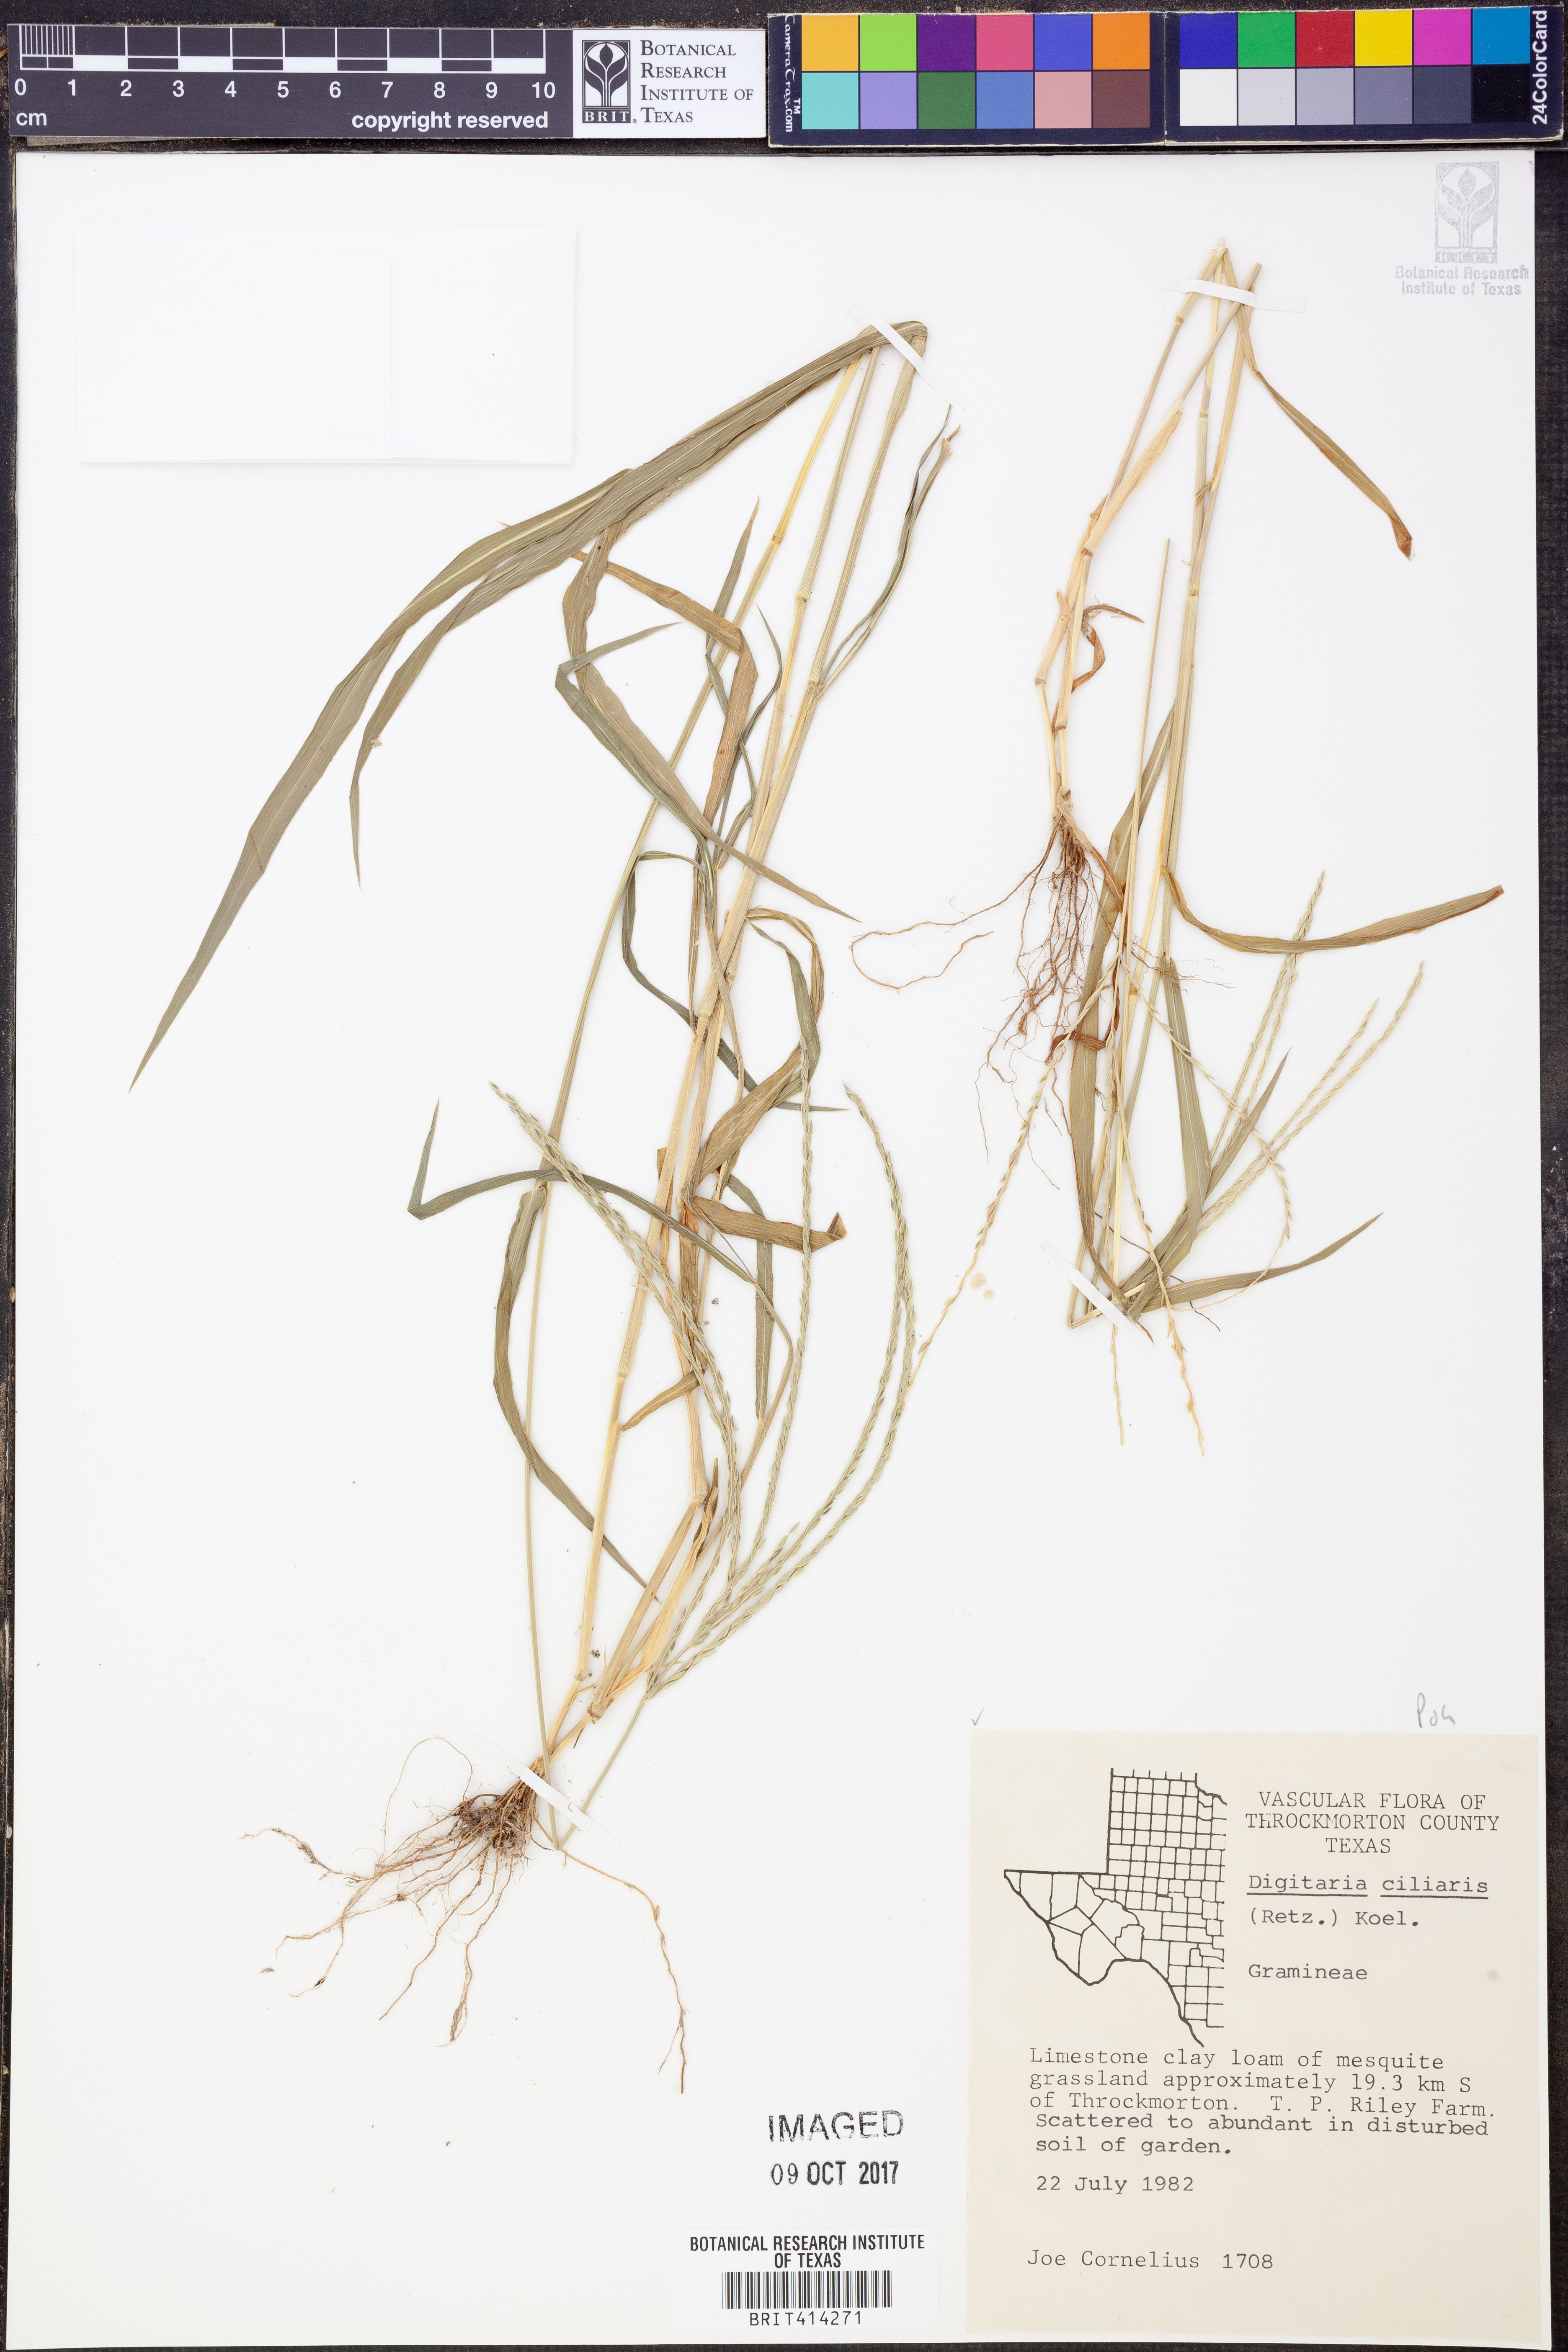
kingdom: Plantae
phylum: Tracheophyta
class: Liliopsida
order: Poales
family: Poaceae
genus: Digitaria
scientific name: Digitaria ciliaris
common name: Tropical finger-grass
